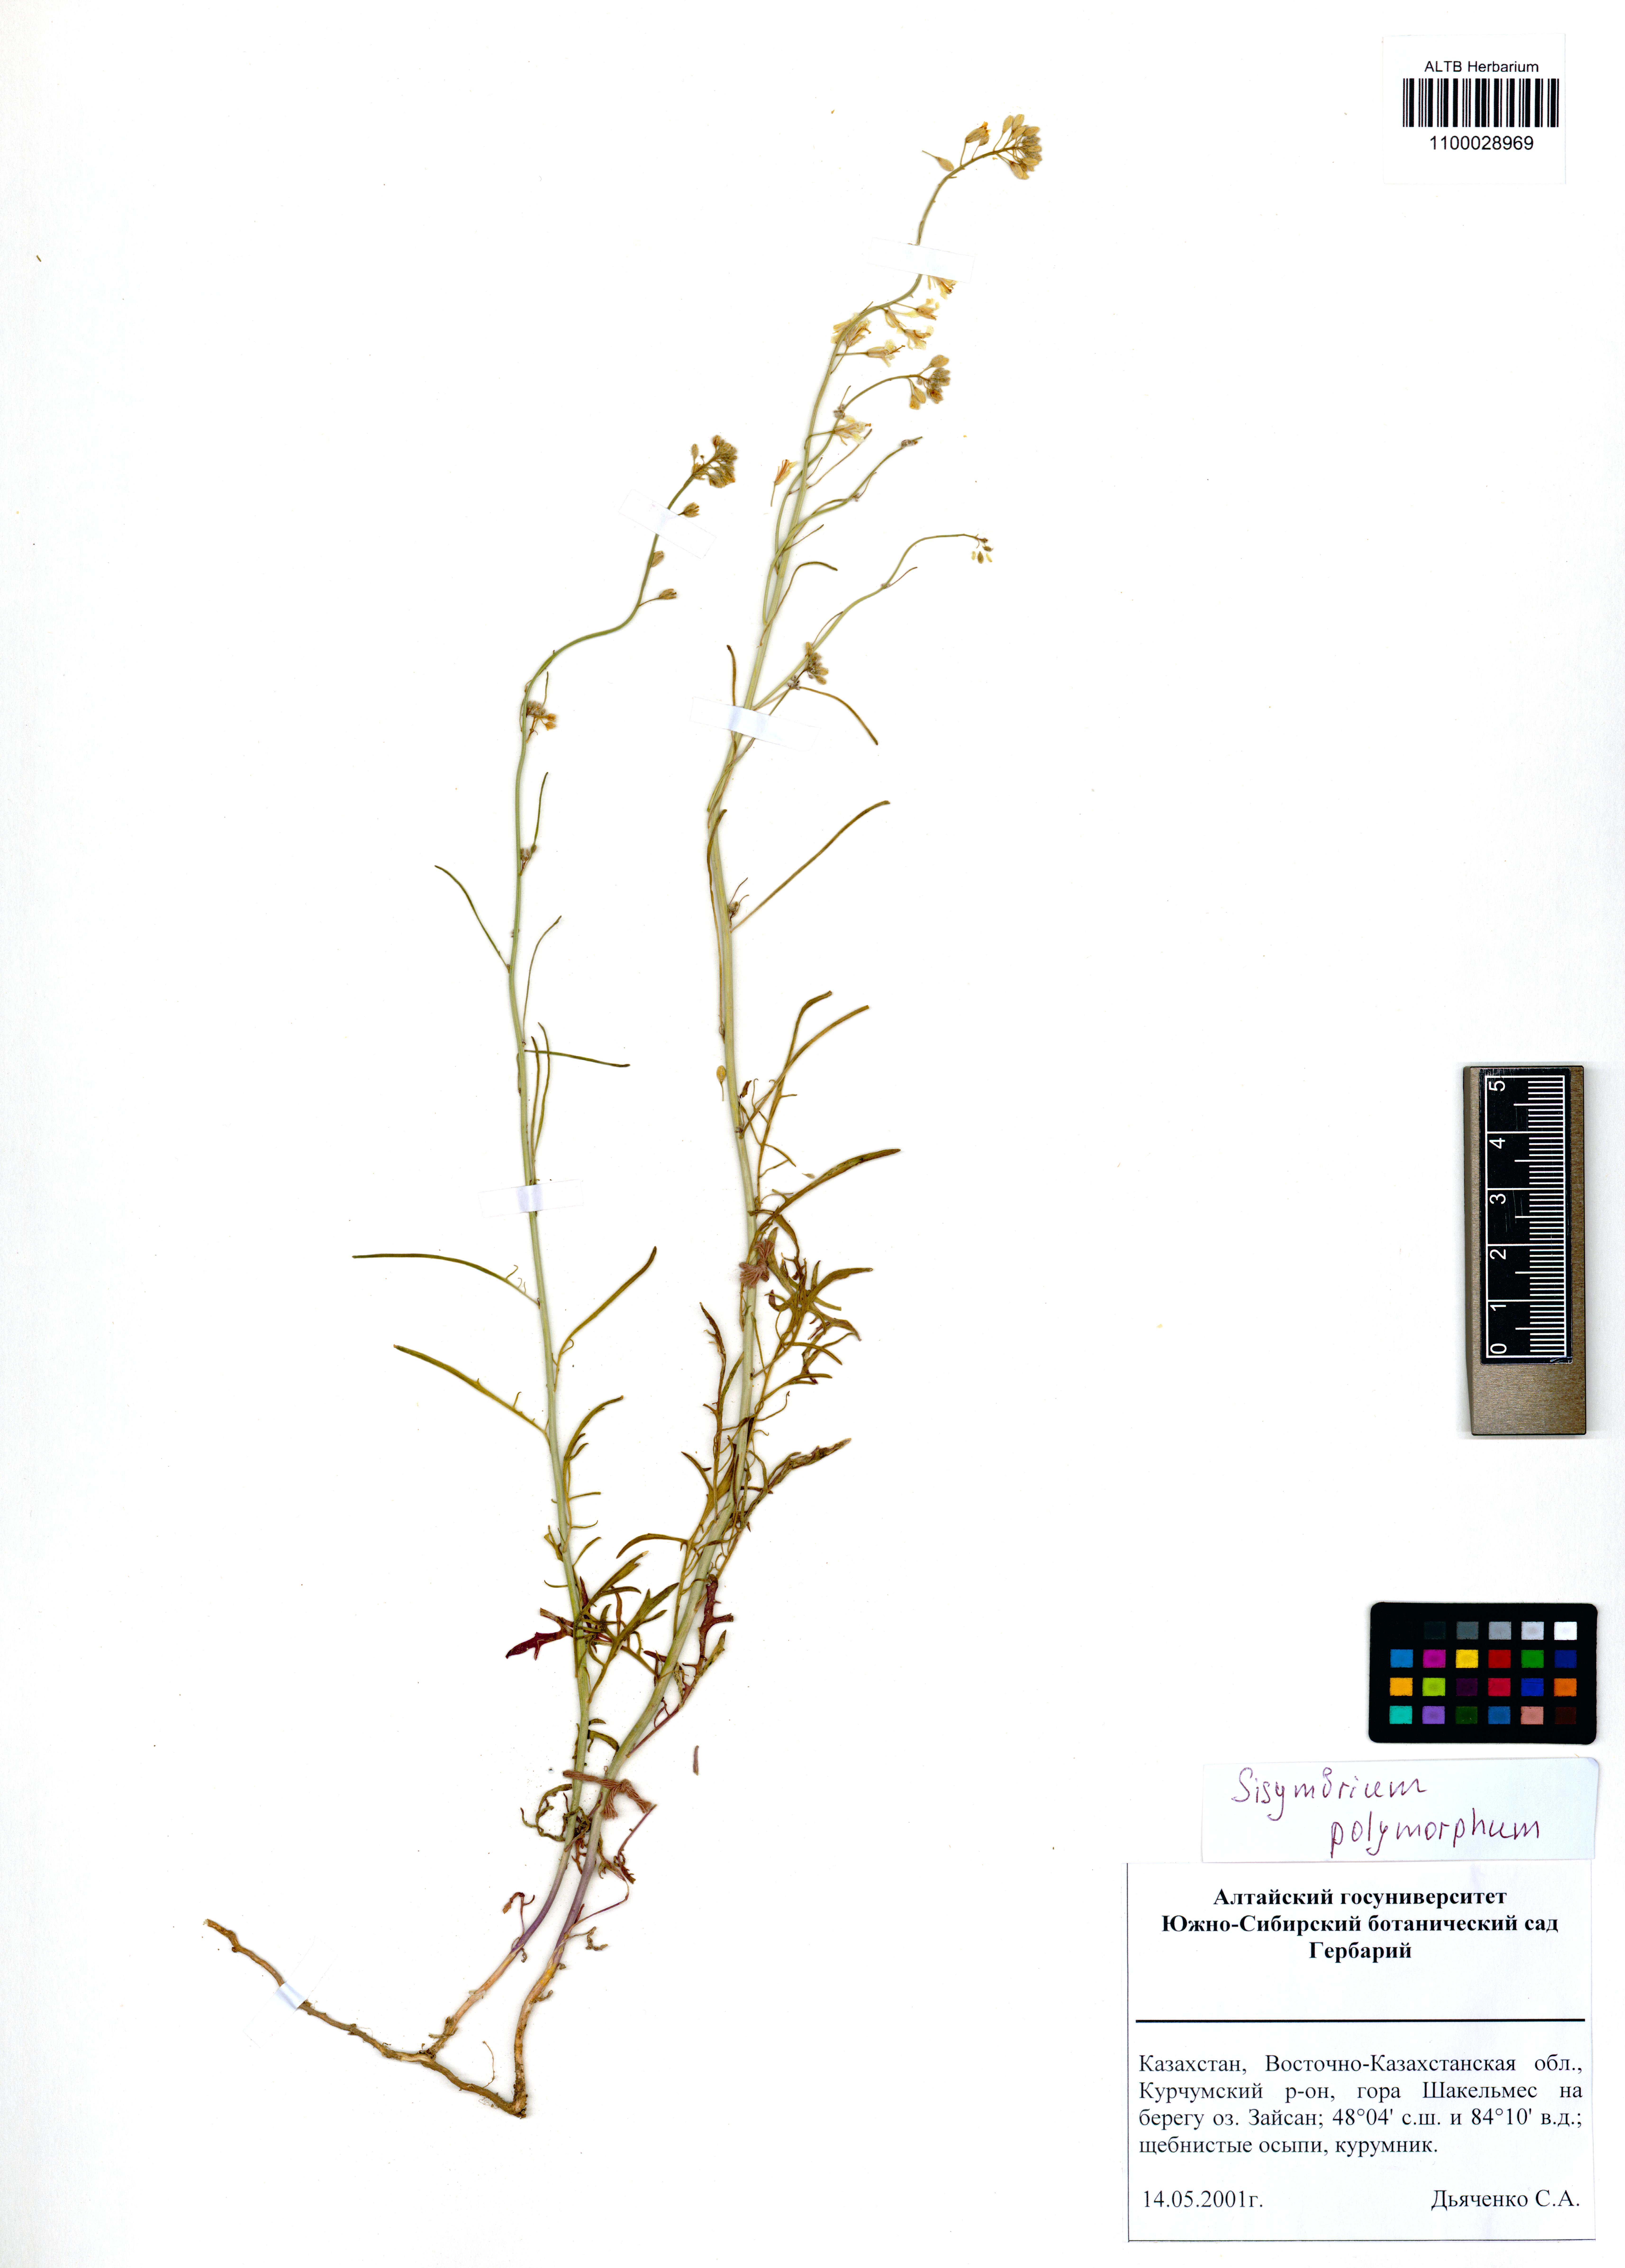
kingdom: Plantae
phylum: Tracheophyta
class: Magnoliopsida
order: Brassicales
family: Brassicaceae
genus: Sisymbrium
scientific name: Sisymbrium polymorphum
